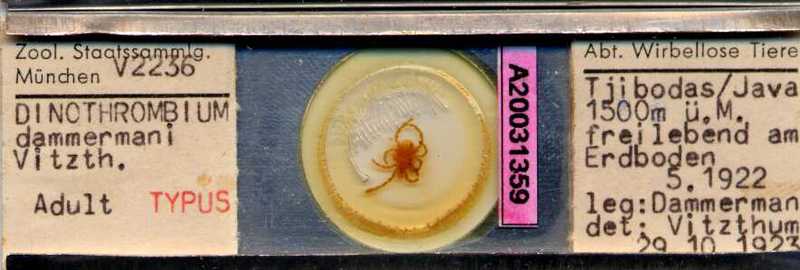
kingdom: Animalia
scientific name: Animalia
